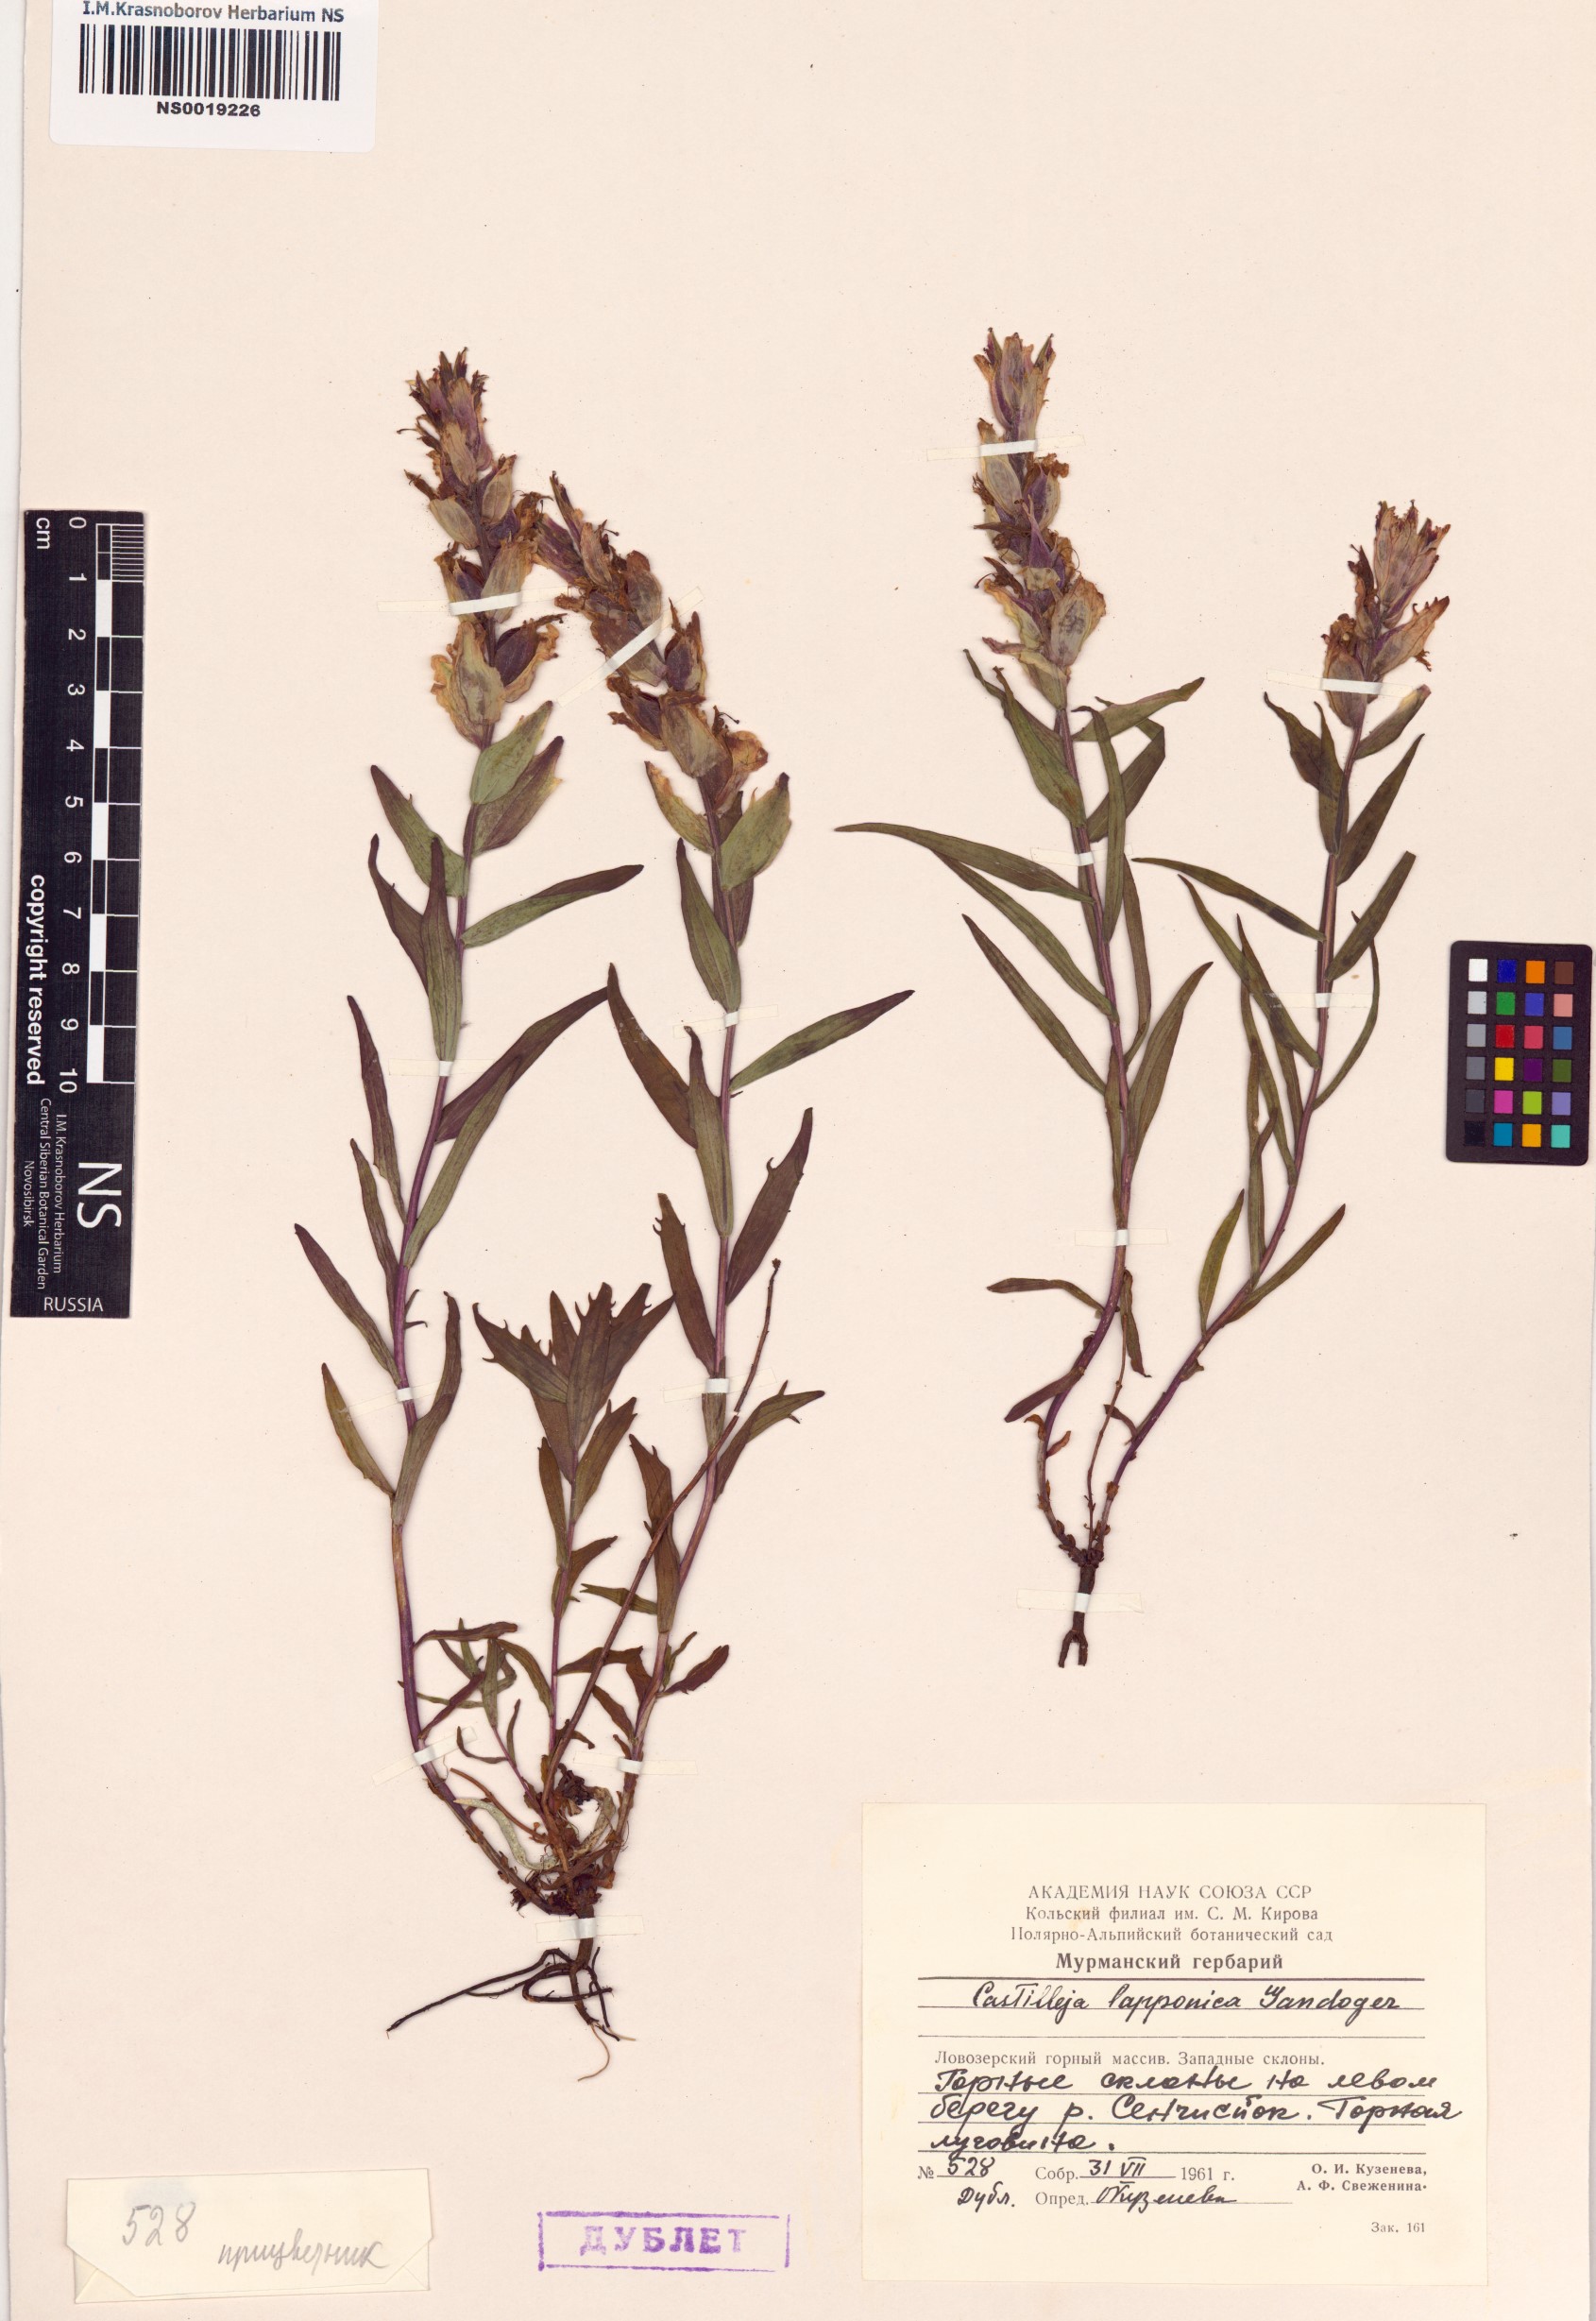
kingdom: Plantae
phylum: Tracheophyta
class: Magnoliopsida
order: Lamiales
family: Orobanchaceae
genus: Castilleja
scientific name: Castilleja lapponica
